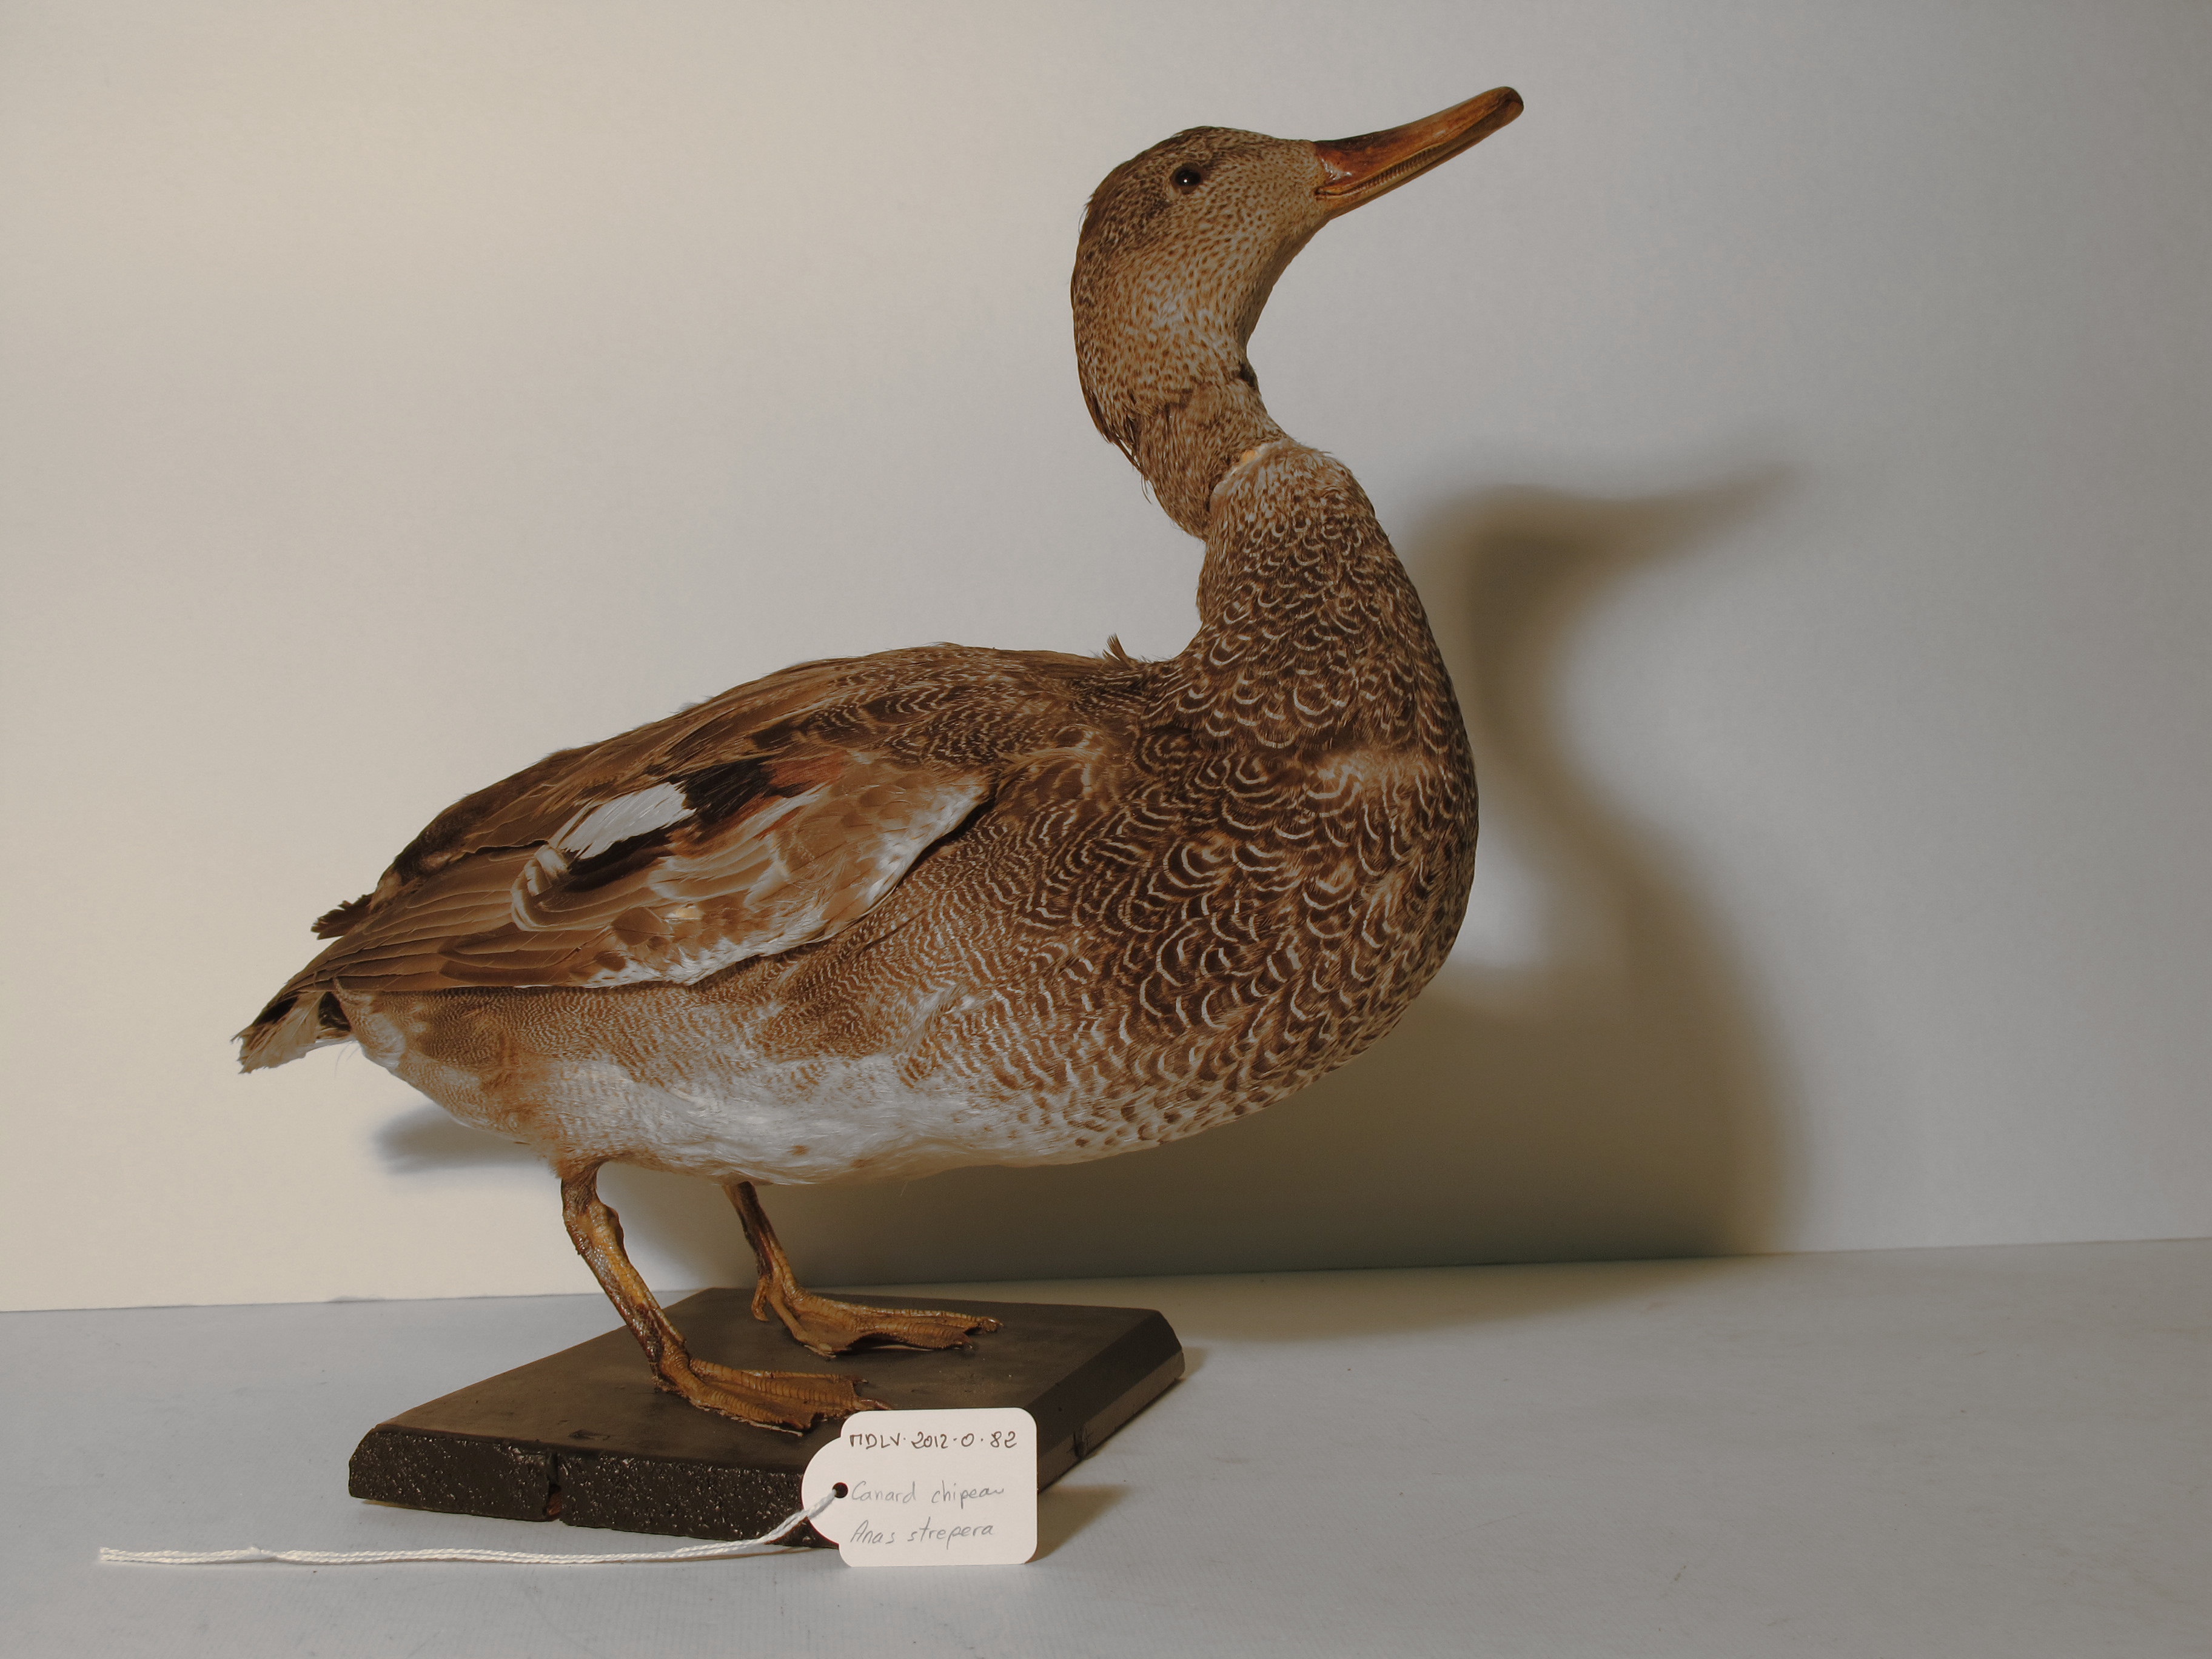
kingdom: Animalia
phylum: Chordata
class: Aves
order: Anseriformes
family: Anatidae
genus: Mareca
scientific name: Mareca strepera
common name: Gadwall
